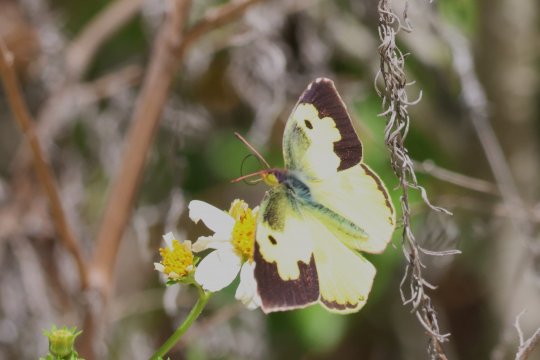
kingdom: Animalia
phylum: Arthropoda
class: Insecta
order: Lepidoptera
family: Pieridae
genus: Zerene
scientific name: Zerene cesonia
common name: Southern Dogface
